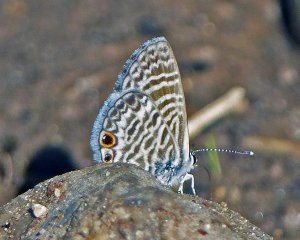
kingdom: Animalia
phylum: Arthropoda
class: Insecta
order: Lepidoptera
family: Lycaenidae
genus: Leptotes
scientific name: Leptotes marina
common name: Marine Blue
